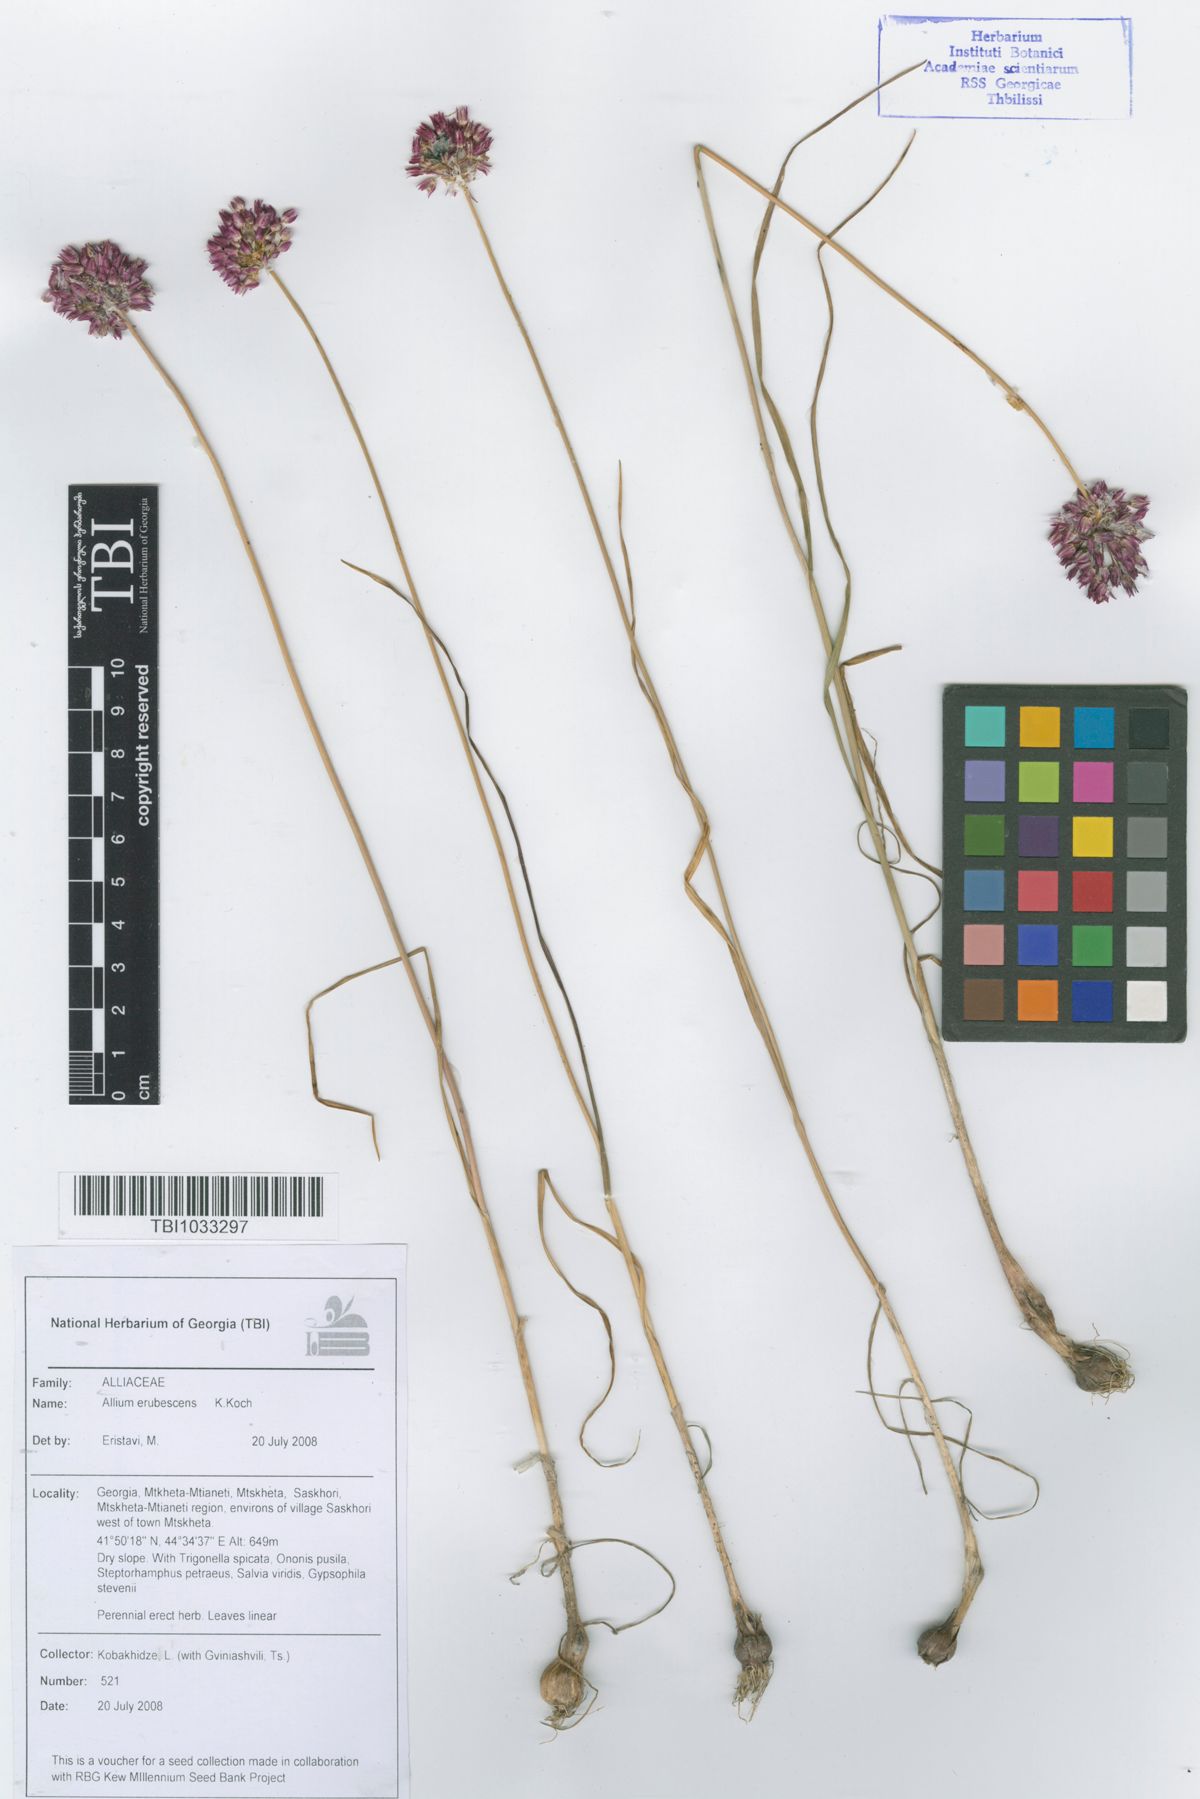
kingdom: Plantae
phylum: Tracheophyta
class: Liliopsida
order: Asparagales
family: Amaryllidaceae
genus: Allium
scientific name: Allium erubescens
